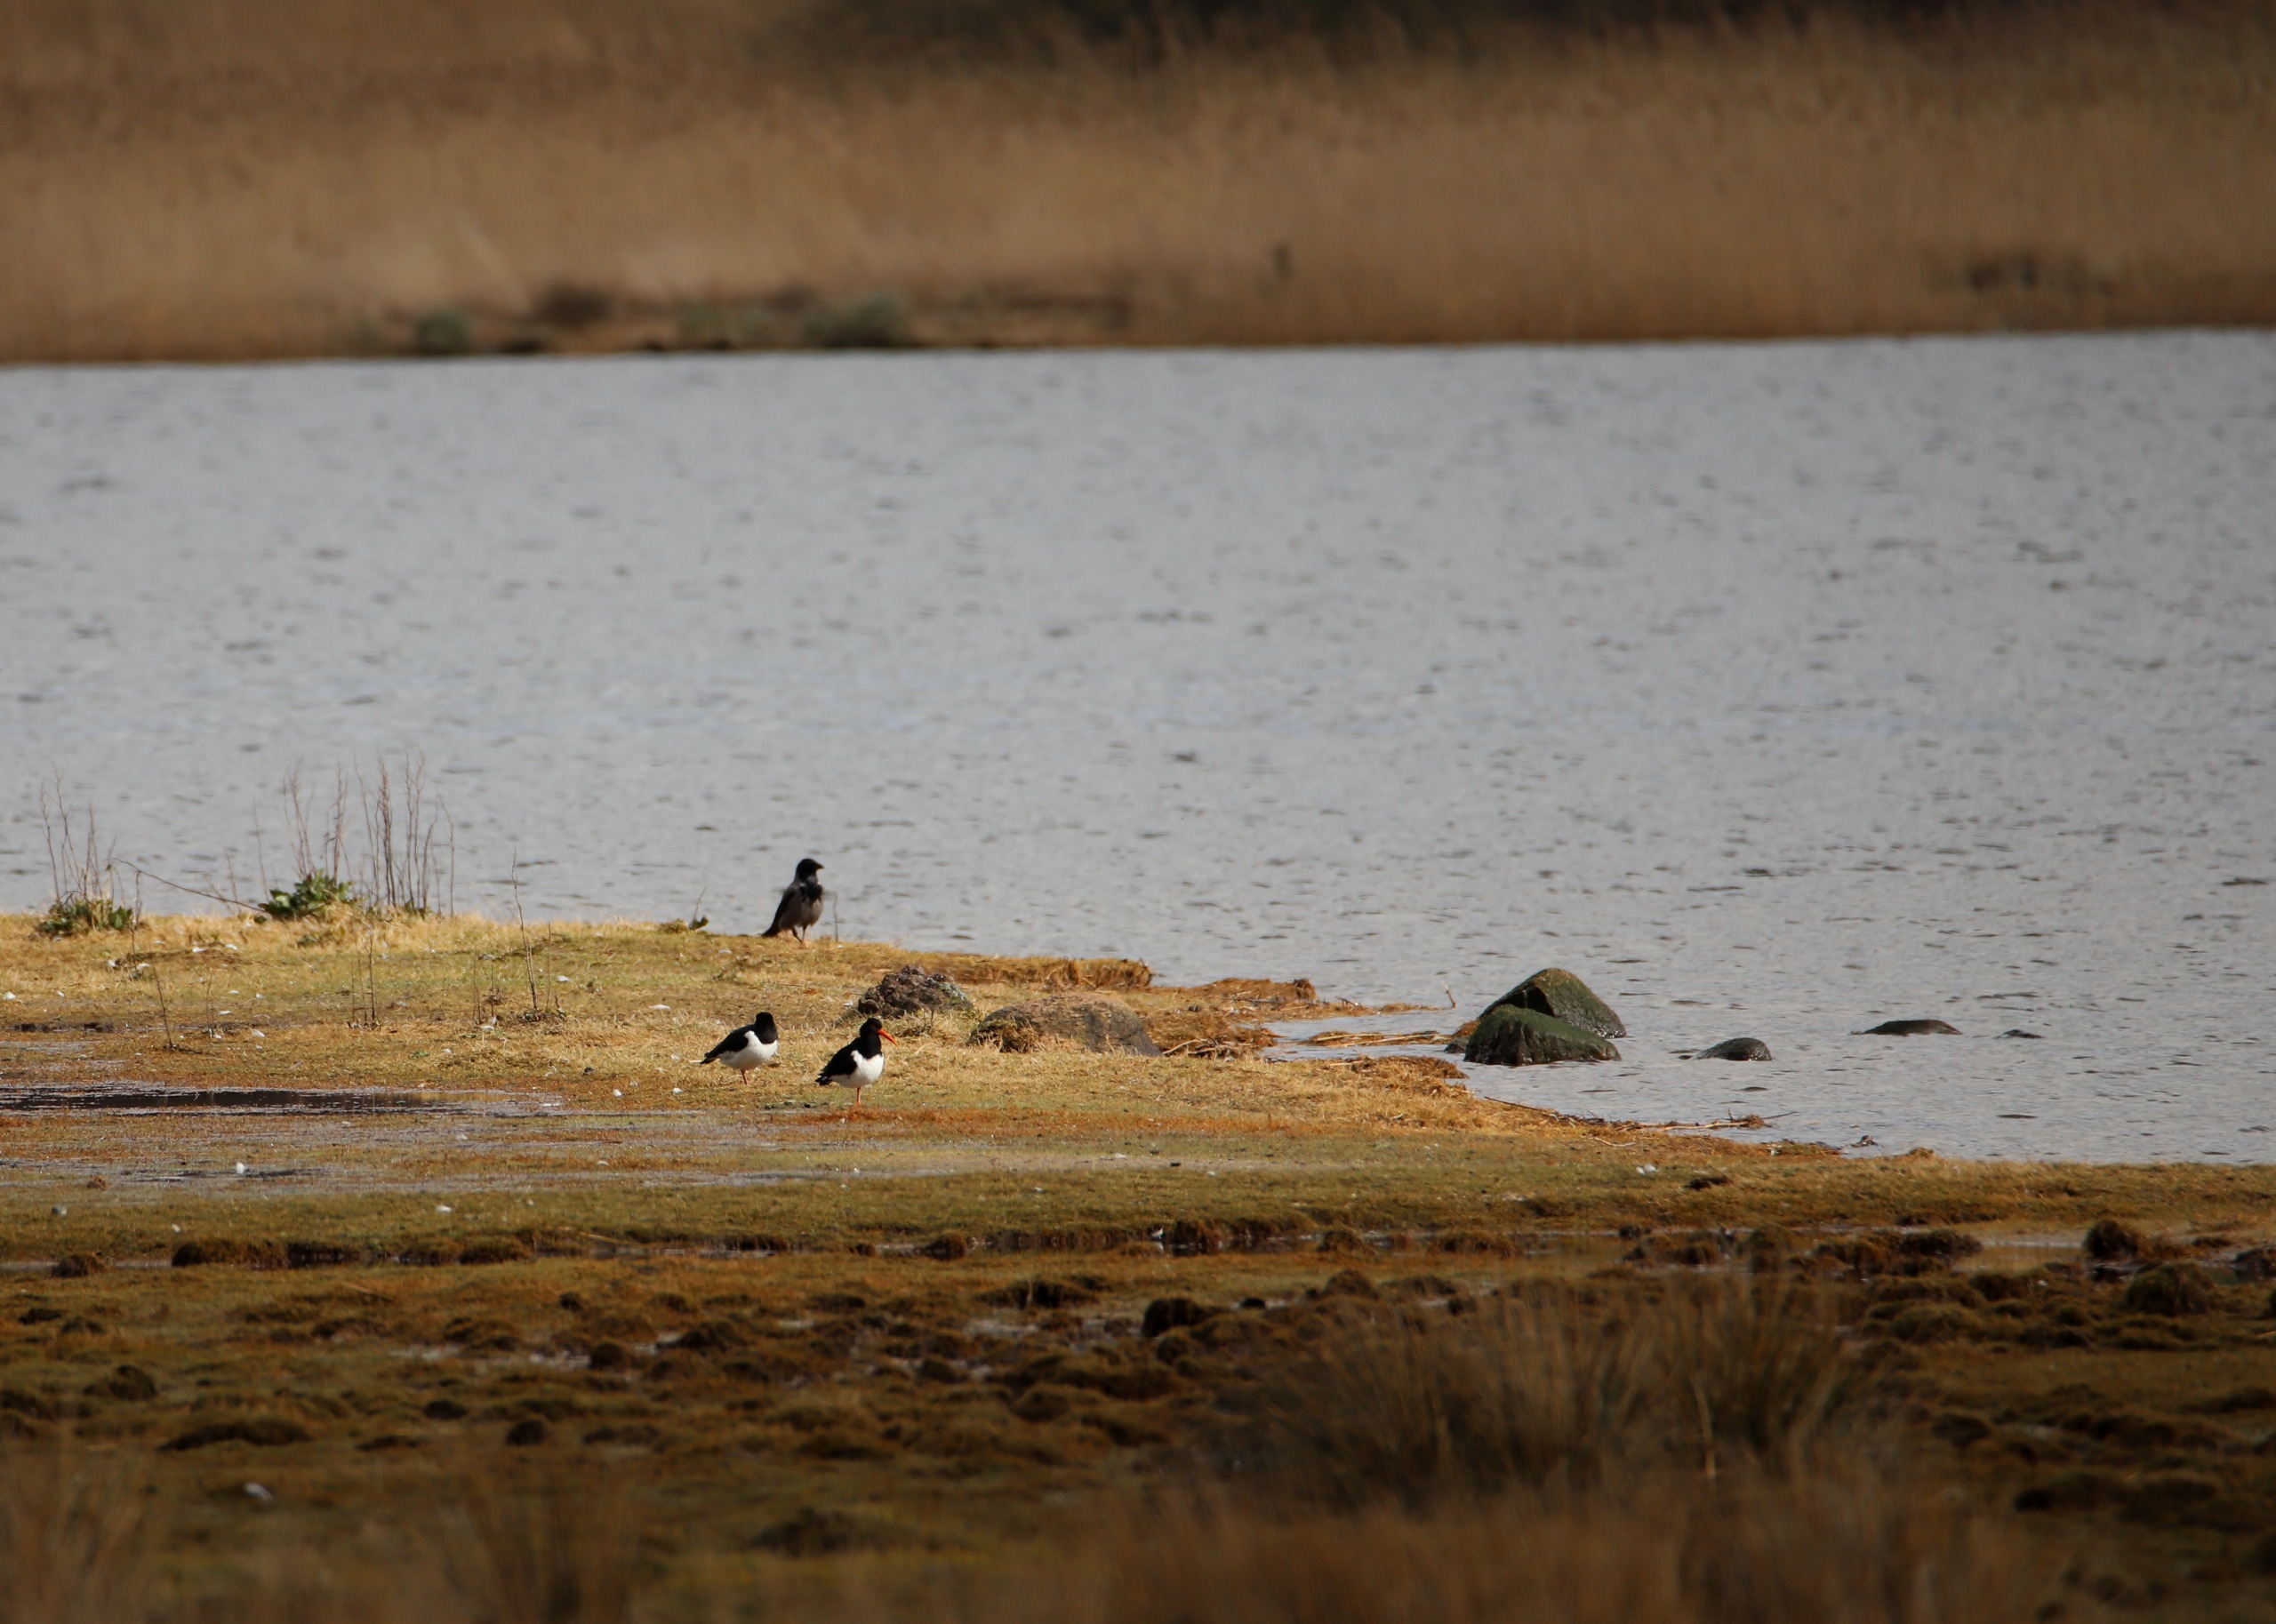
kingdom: Animalia
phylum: Chordata
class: Aves
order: Charadriiformes
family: Haematopodidae
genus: Haematopus
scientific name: Haematopus ostralegus
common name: Strandskade
